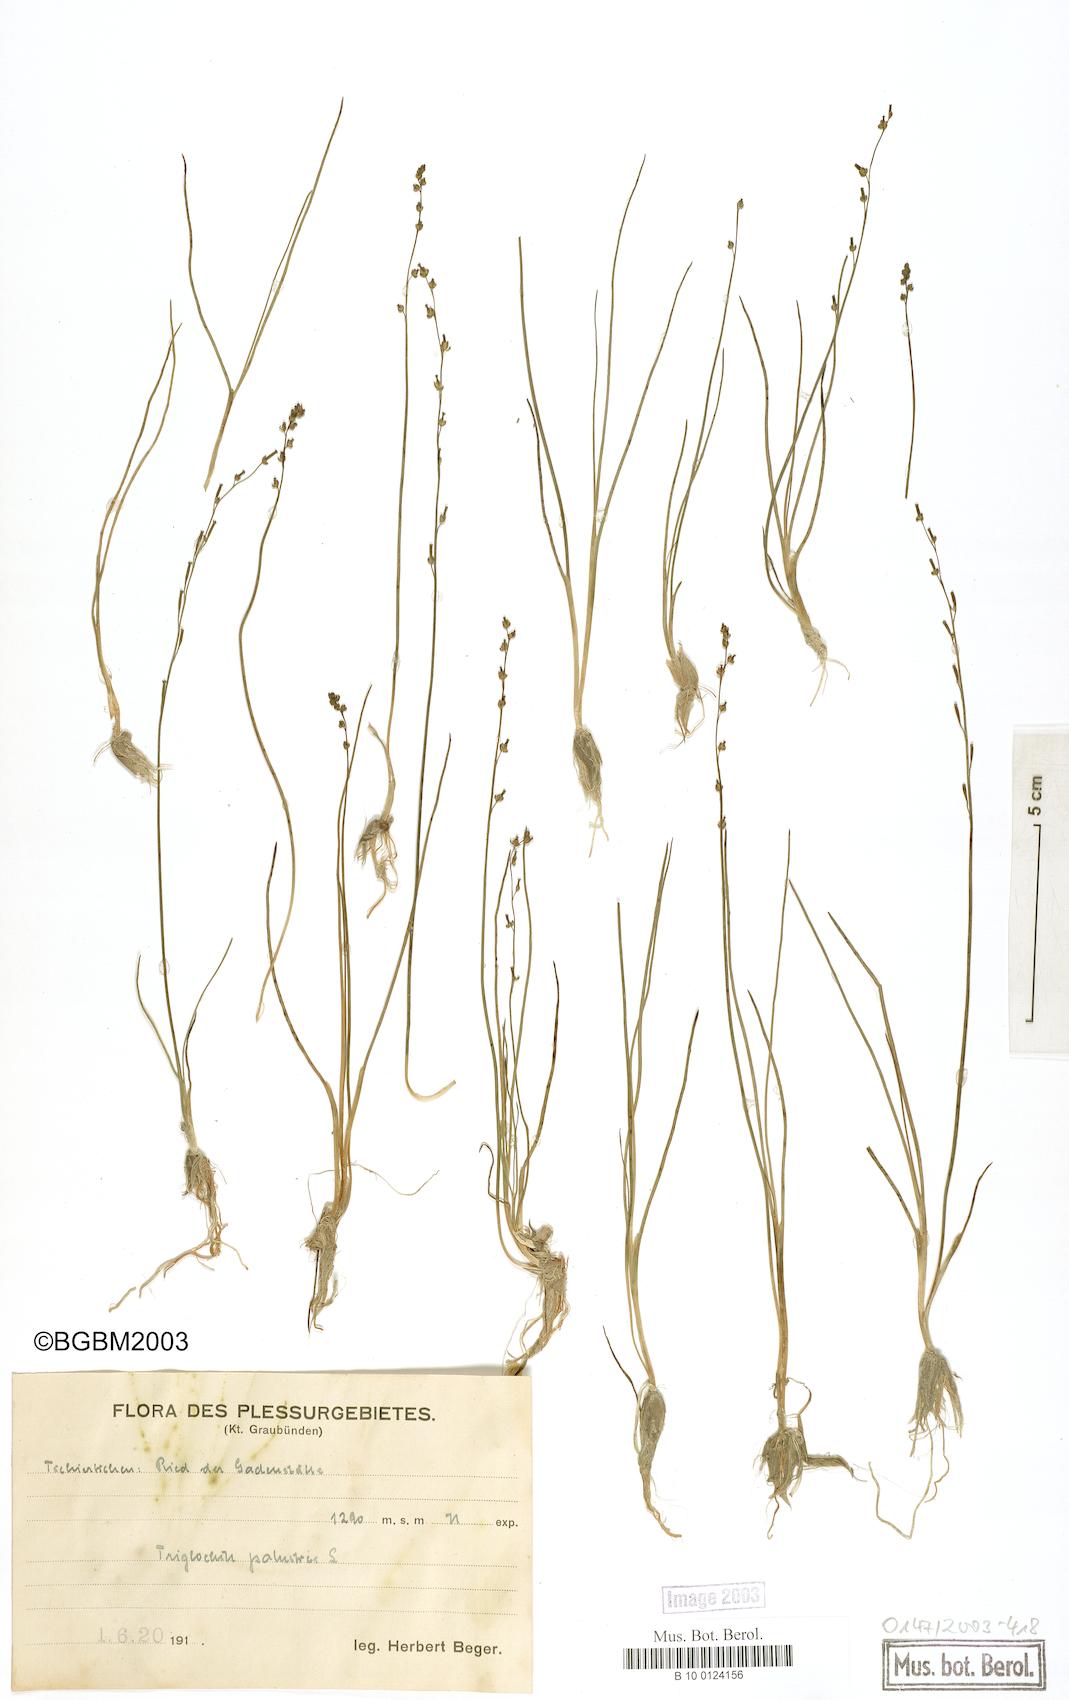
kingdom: Plantae
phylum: Tracheophyta
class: Liliopsida
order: Alismatales
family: Juncaginaceae
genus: Triglochin
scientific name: Triglochin palustris
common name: Marsh arrowgrass
